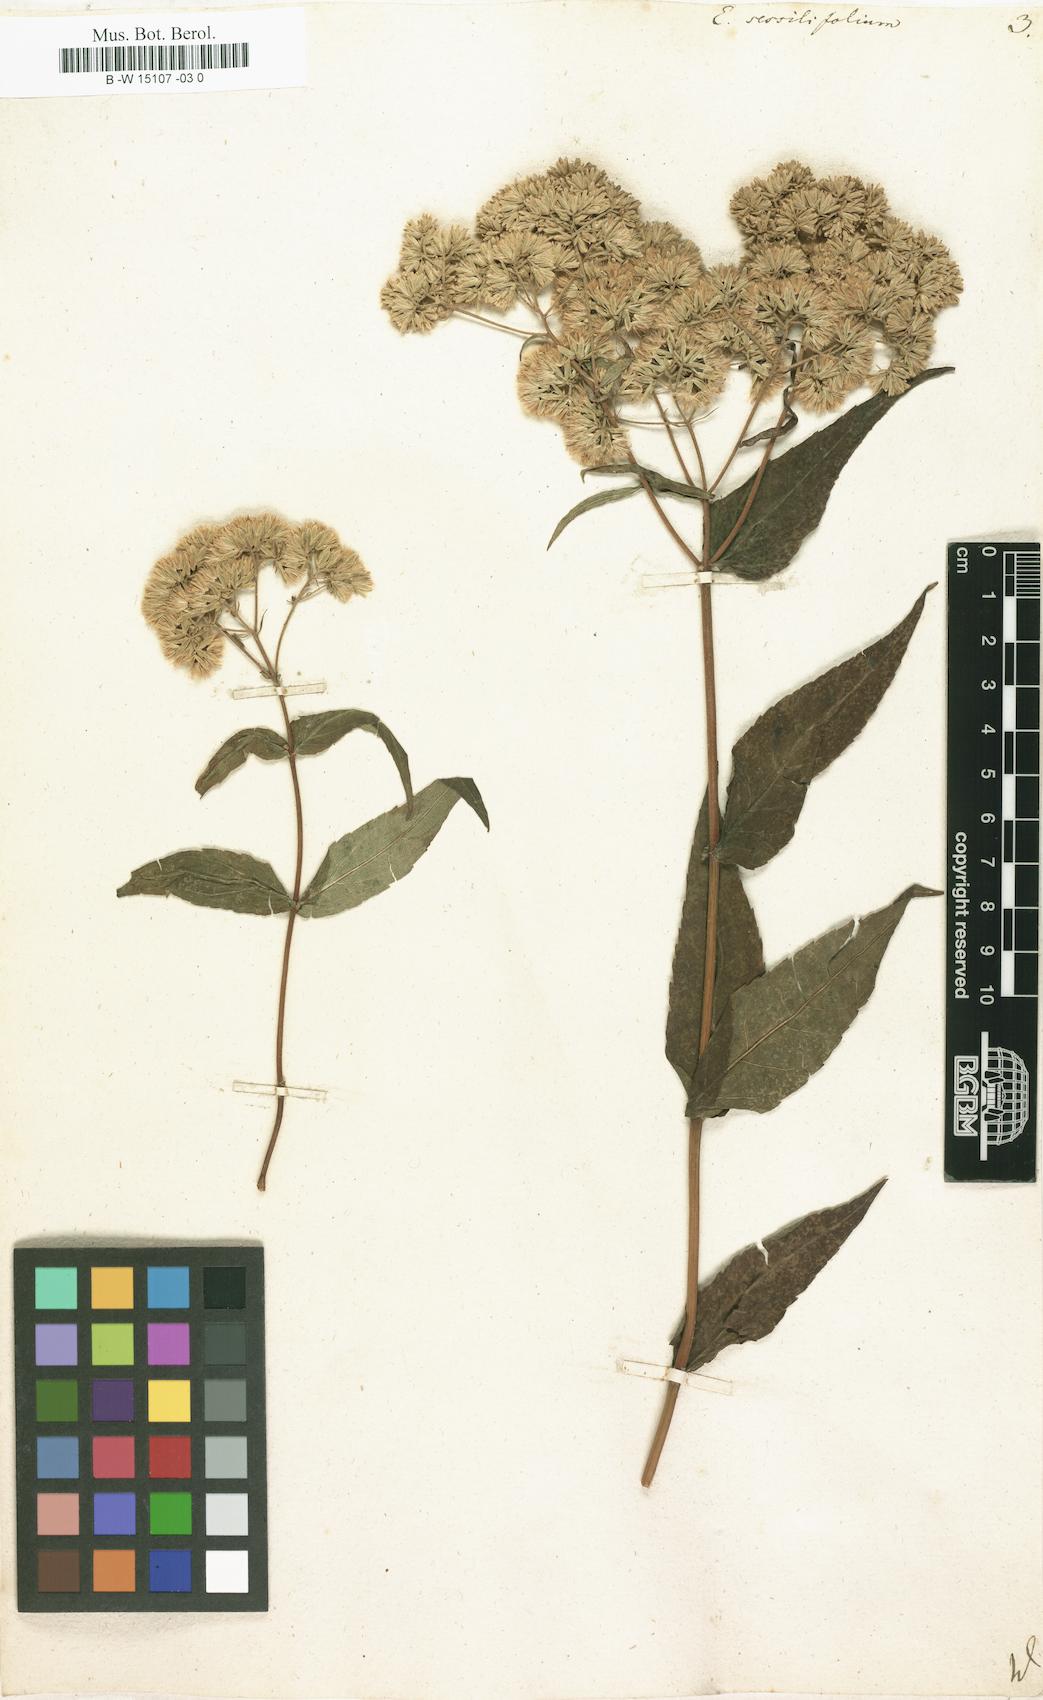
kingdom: Plantae
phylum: Tracheophyta
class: Magnoliopsida
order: Asterales
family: Asteraceae
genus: Eupatorium
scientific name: Eupatorium sessilifolium
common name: Upland boneset
